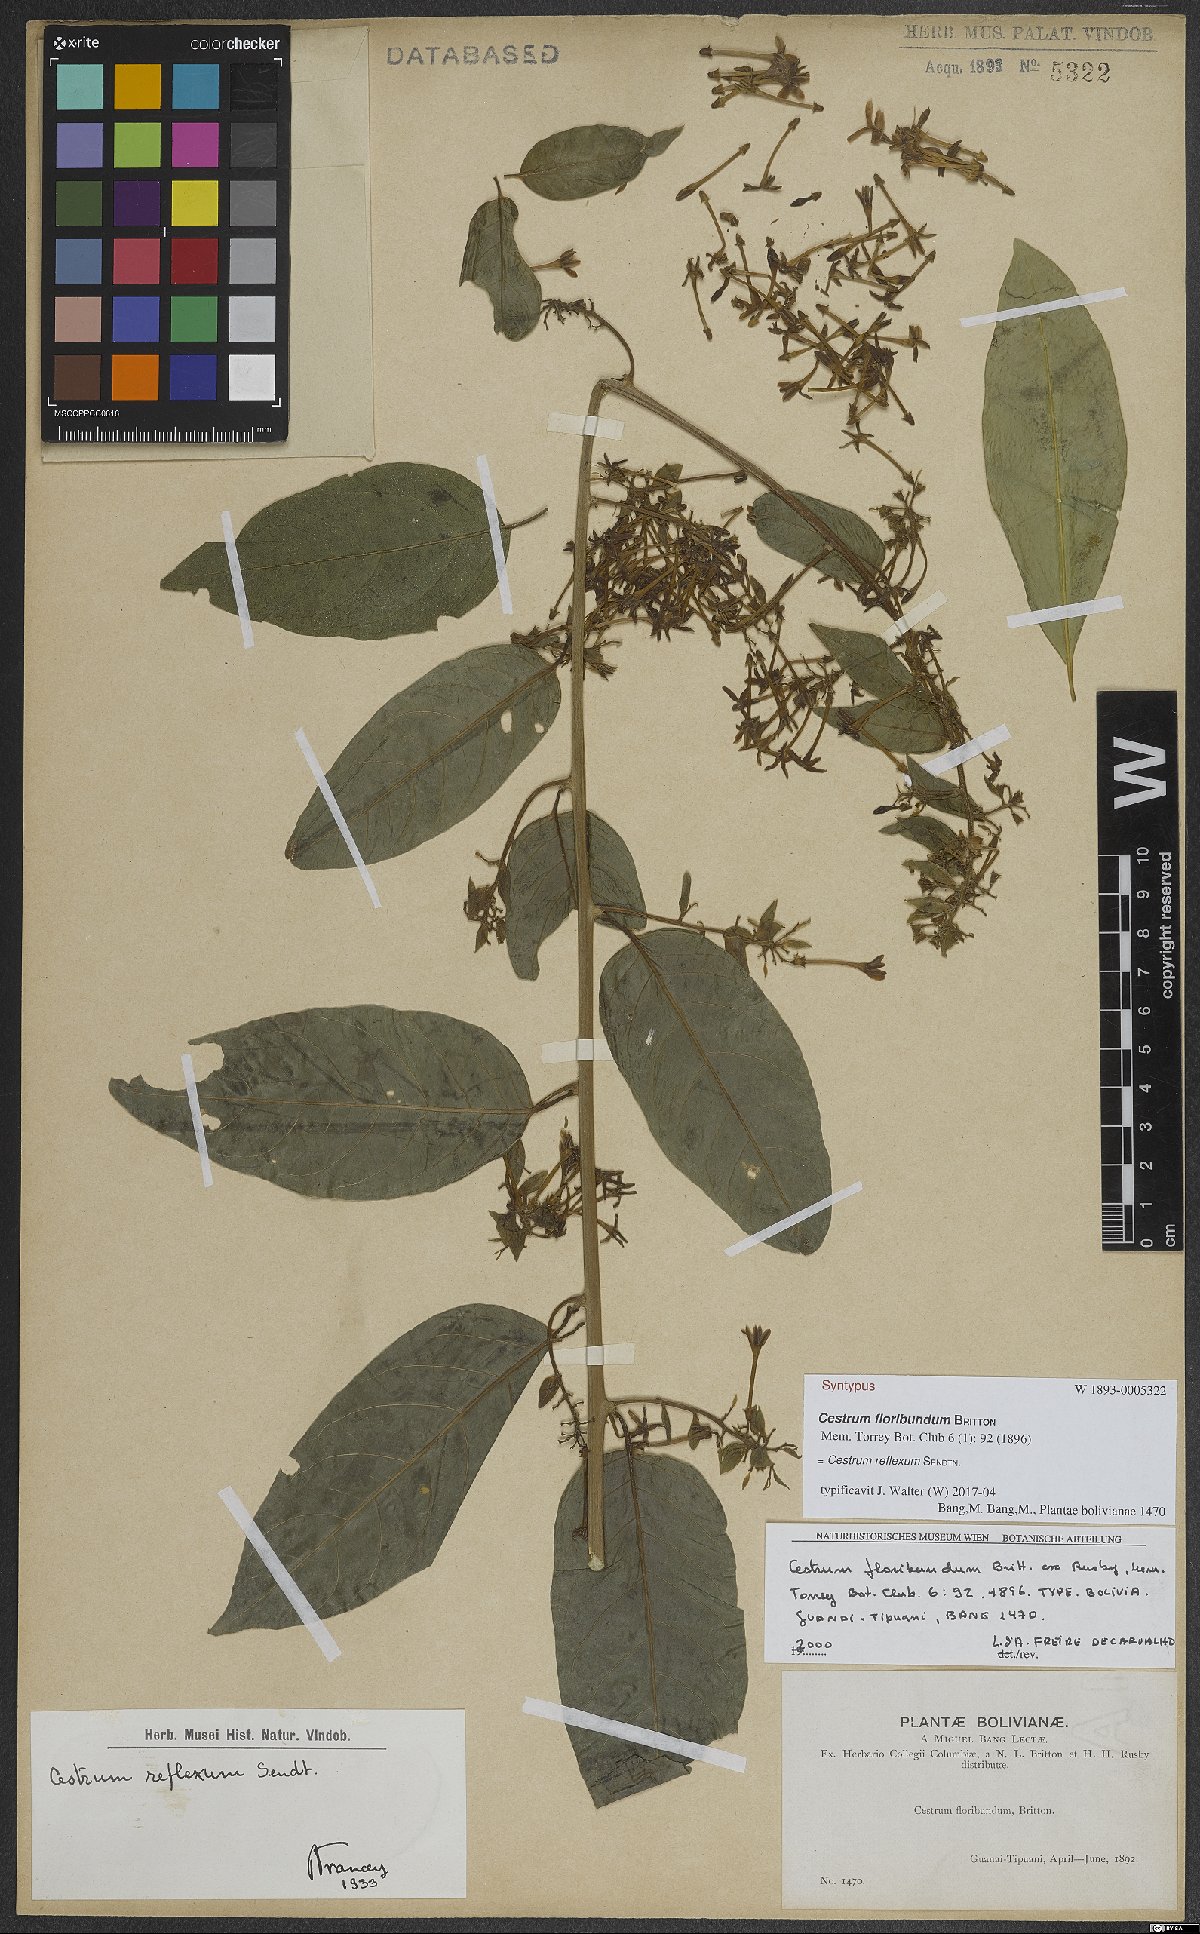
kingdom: Plantae
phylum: Tracheophyta
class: Magnoliopsida
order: Solanales
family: Solanaceae
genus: Cestrum
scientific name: Cestrum reflexum
